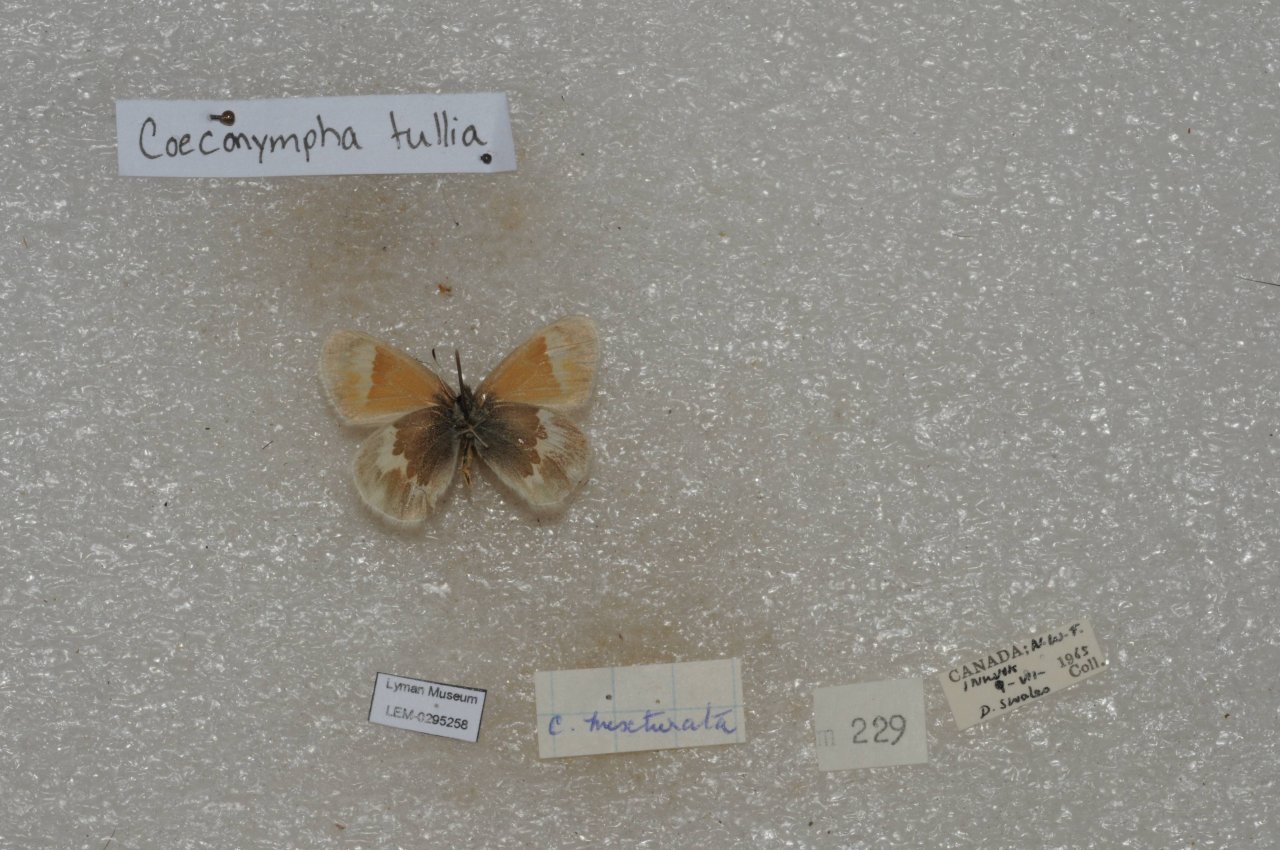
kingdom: Animalia
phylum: Arthropoda
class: Insecta
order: Lepidoptera
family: Nymphalidae
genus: Coenonympha
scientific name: Coenonympha tullia
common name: Large Heath
